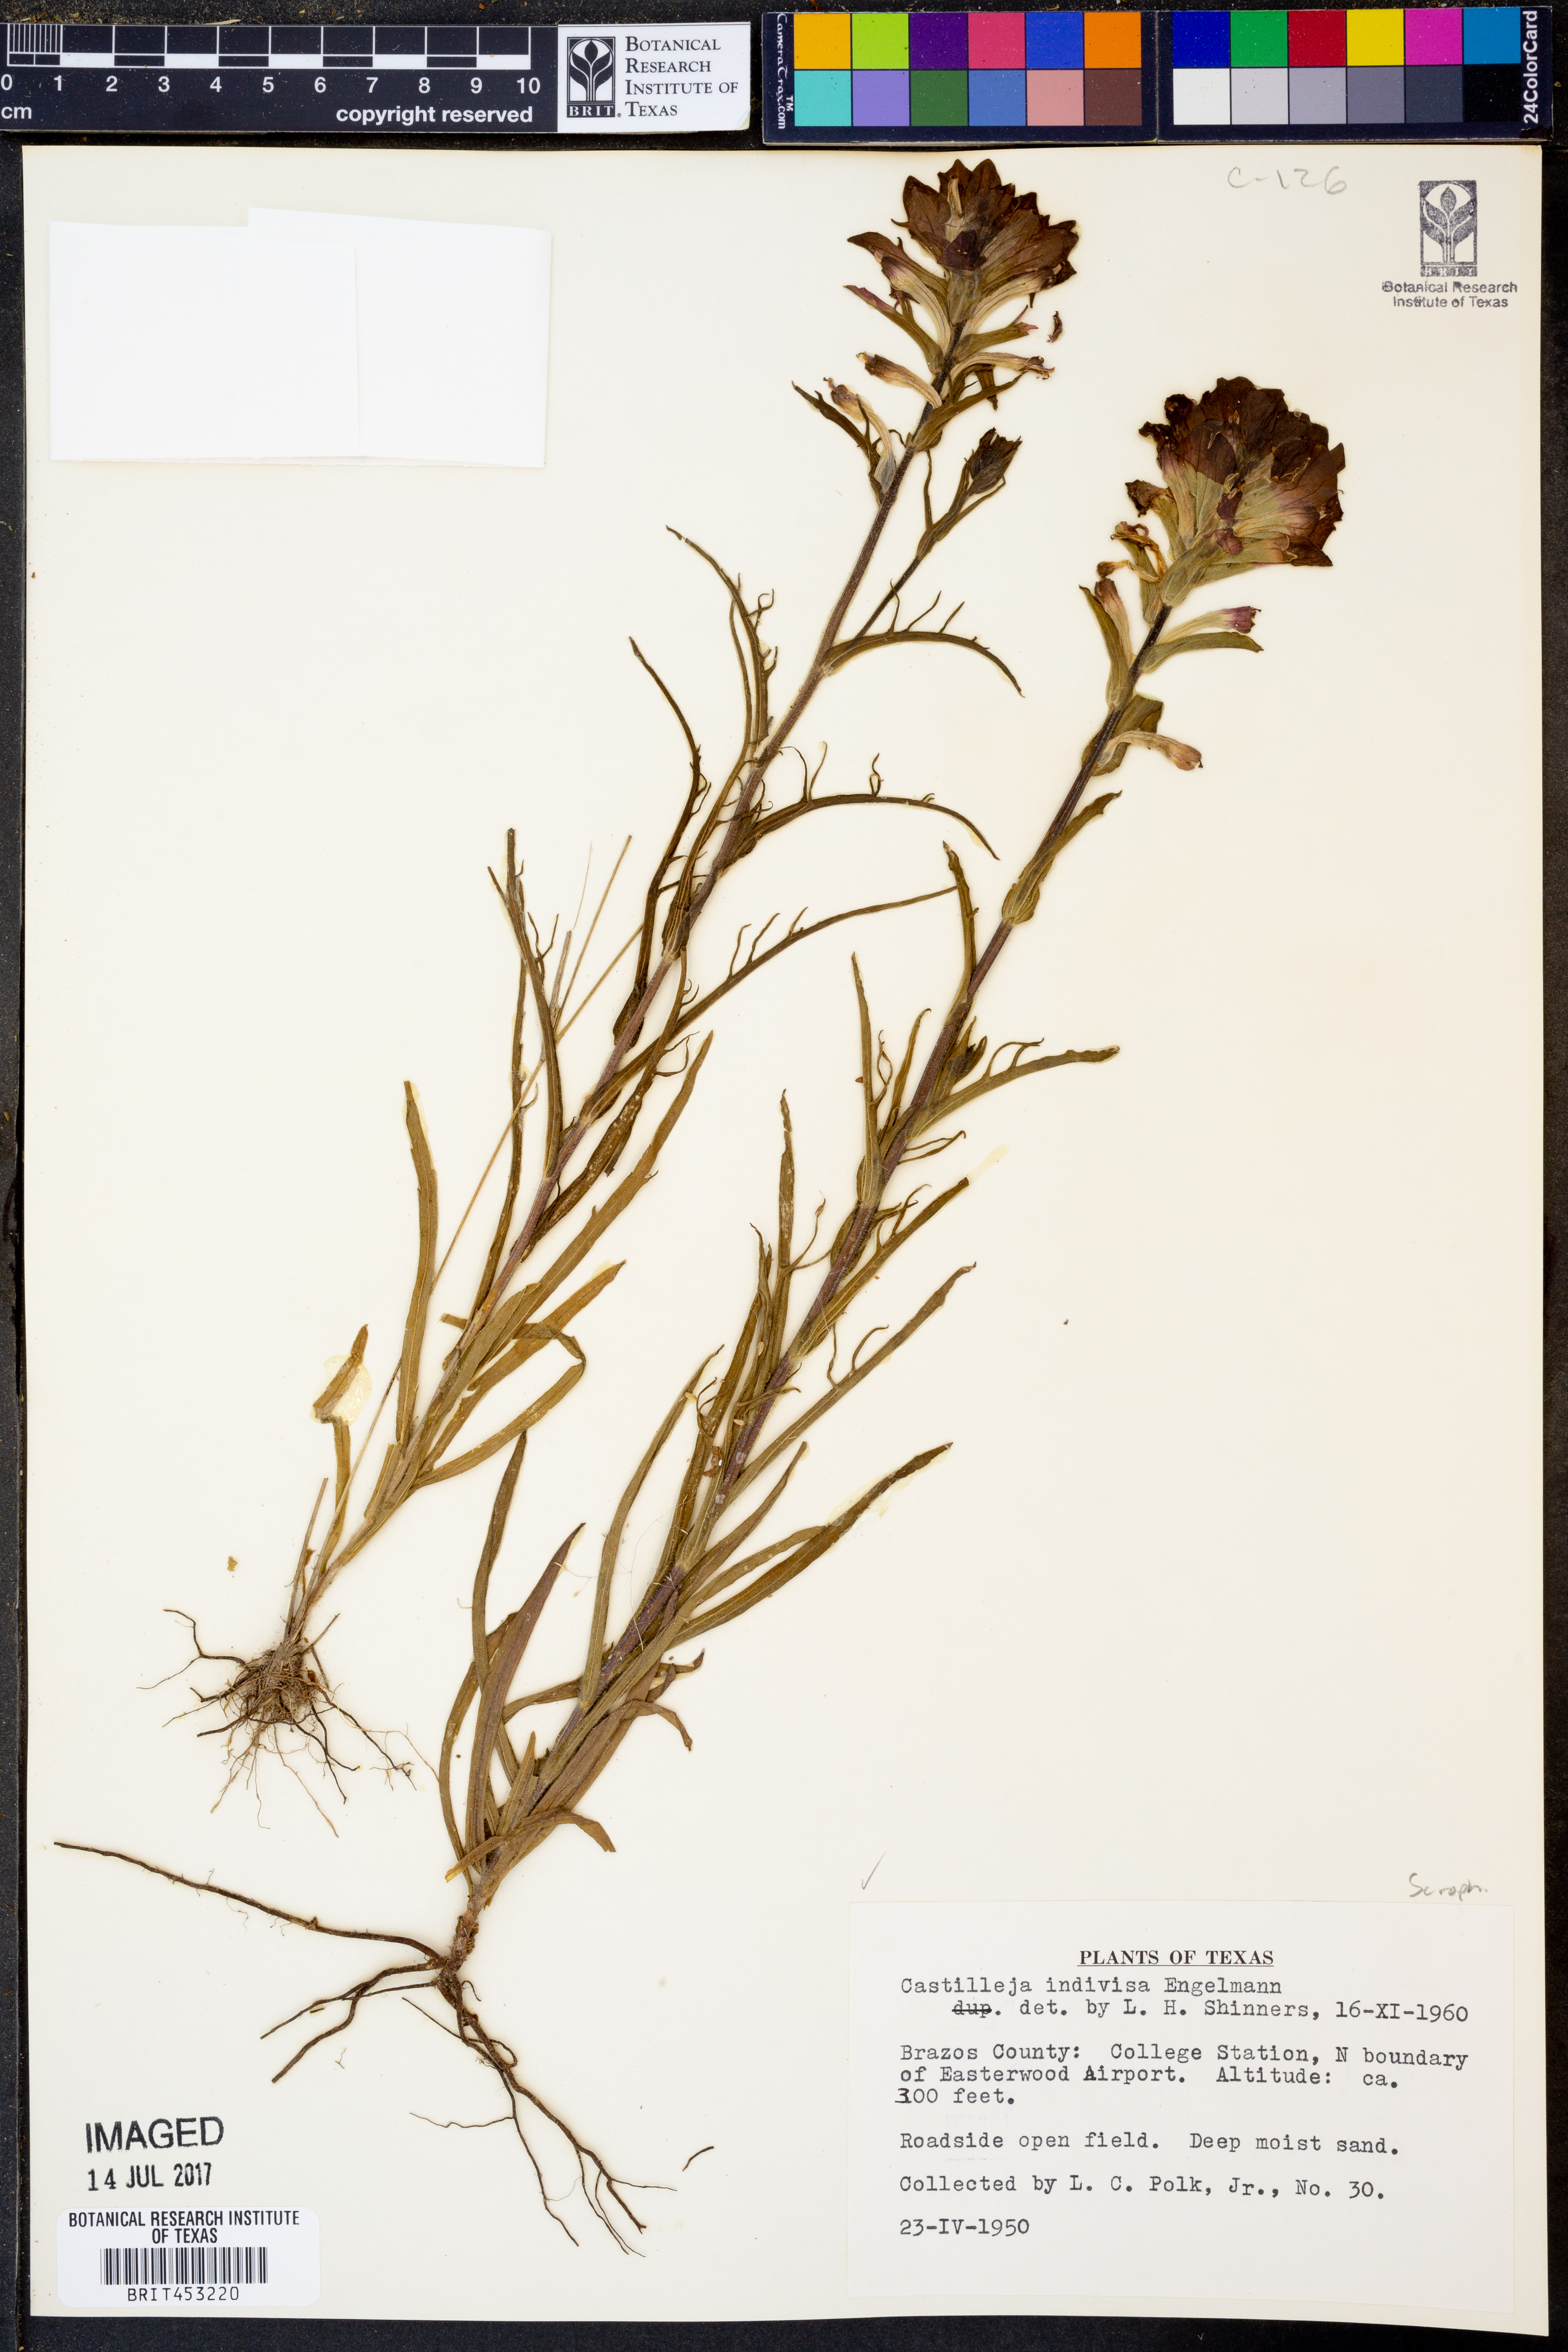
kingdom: Plantae
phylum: Tracheophyta
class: Magnoliopsida
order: Lamiales
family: Orobanchaceae
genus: Castilleja
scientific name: Castilleja indivisa
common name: Texas paintbrush
